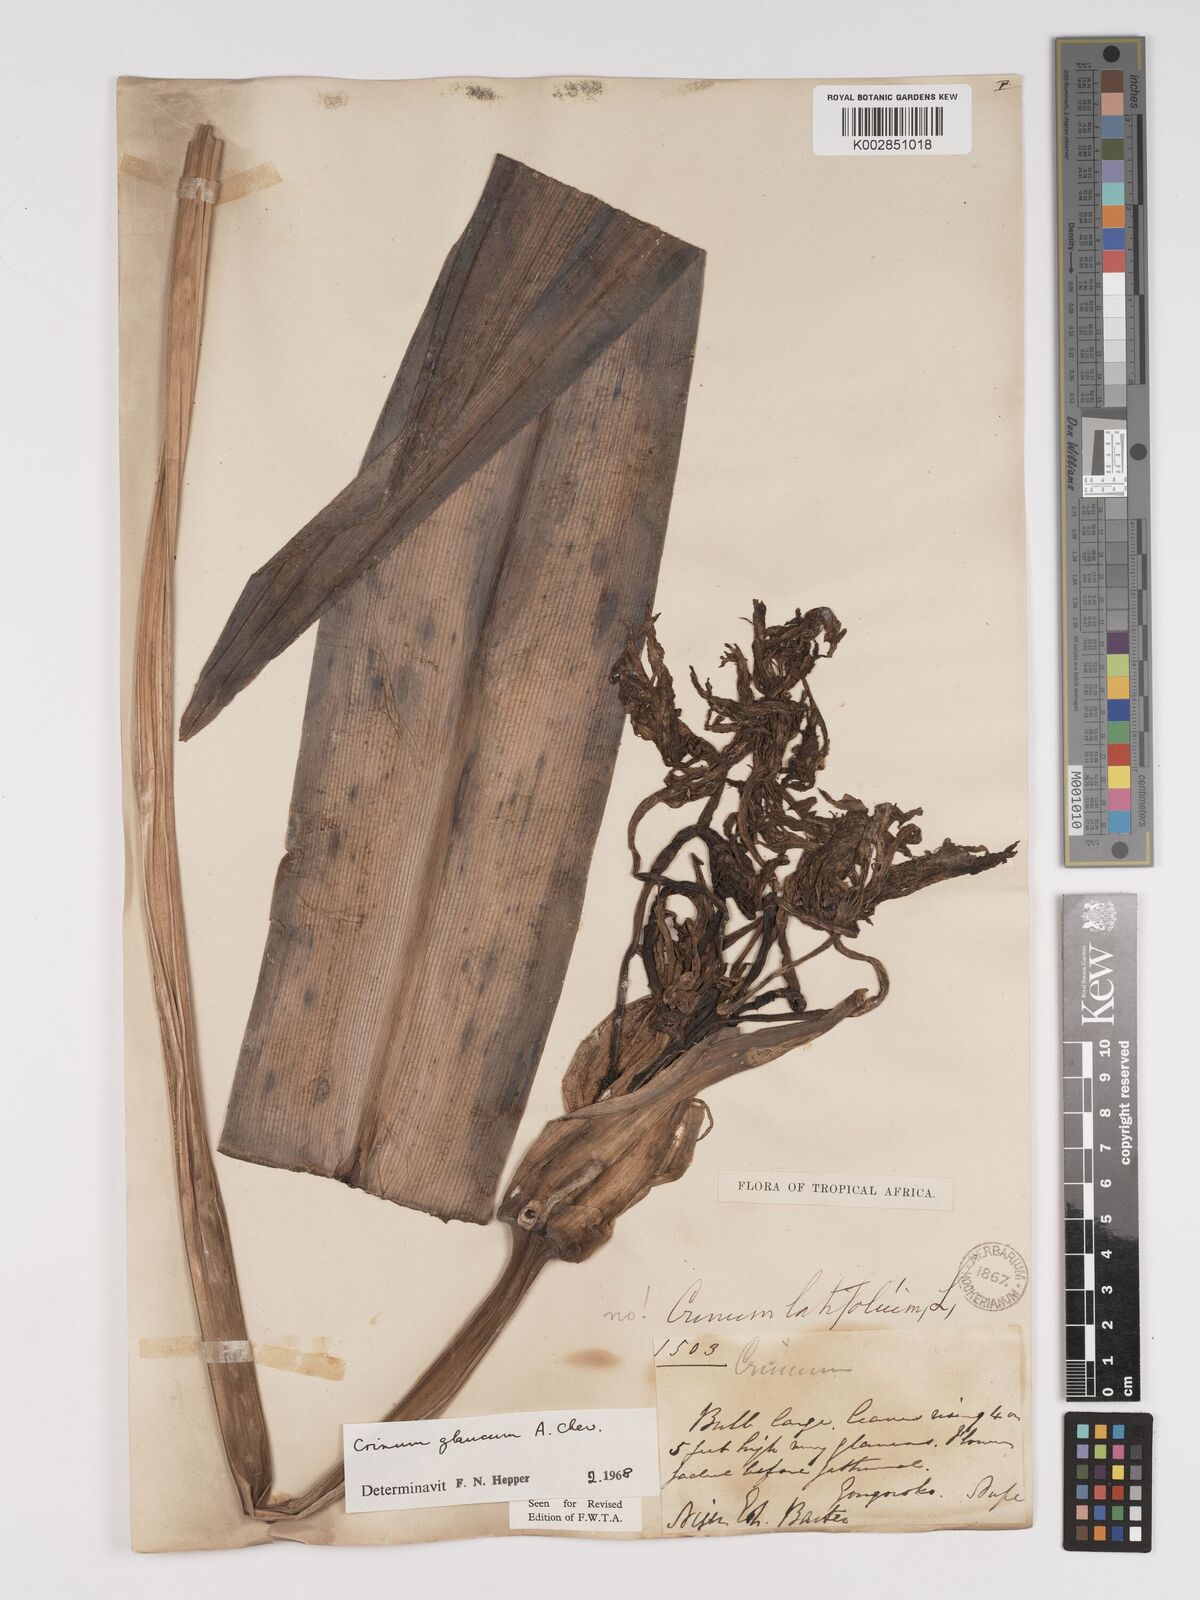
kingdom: Plantae
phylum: Tracheophyta
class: Liliopsida
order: Asparagales
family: Amaryllidaceae
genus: Crinum
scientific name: Crinum glaucum
